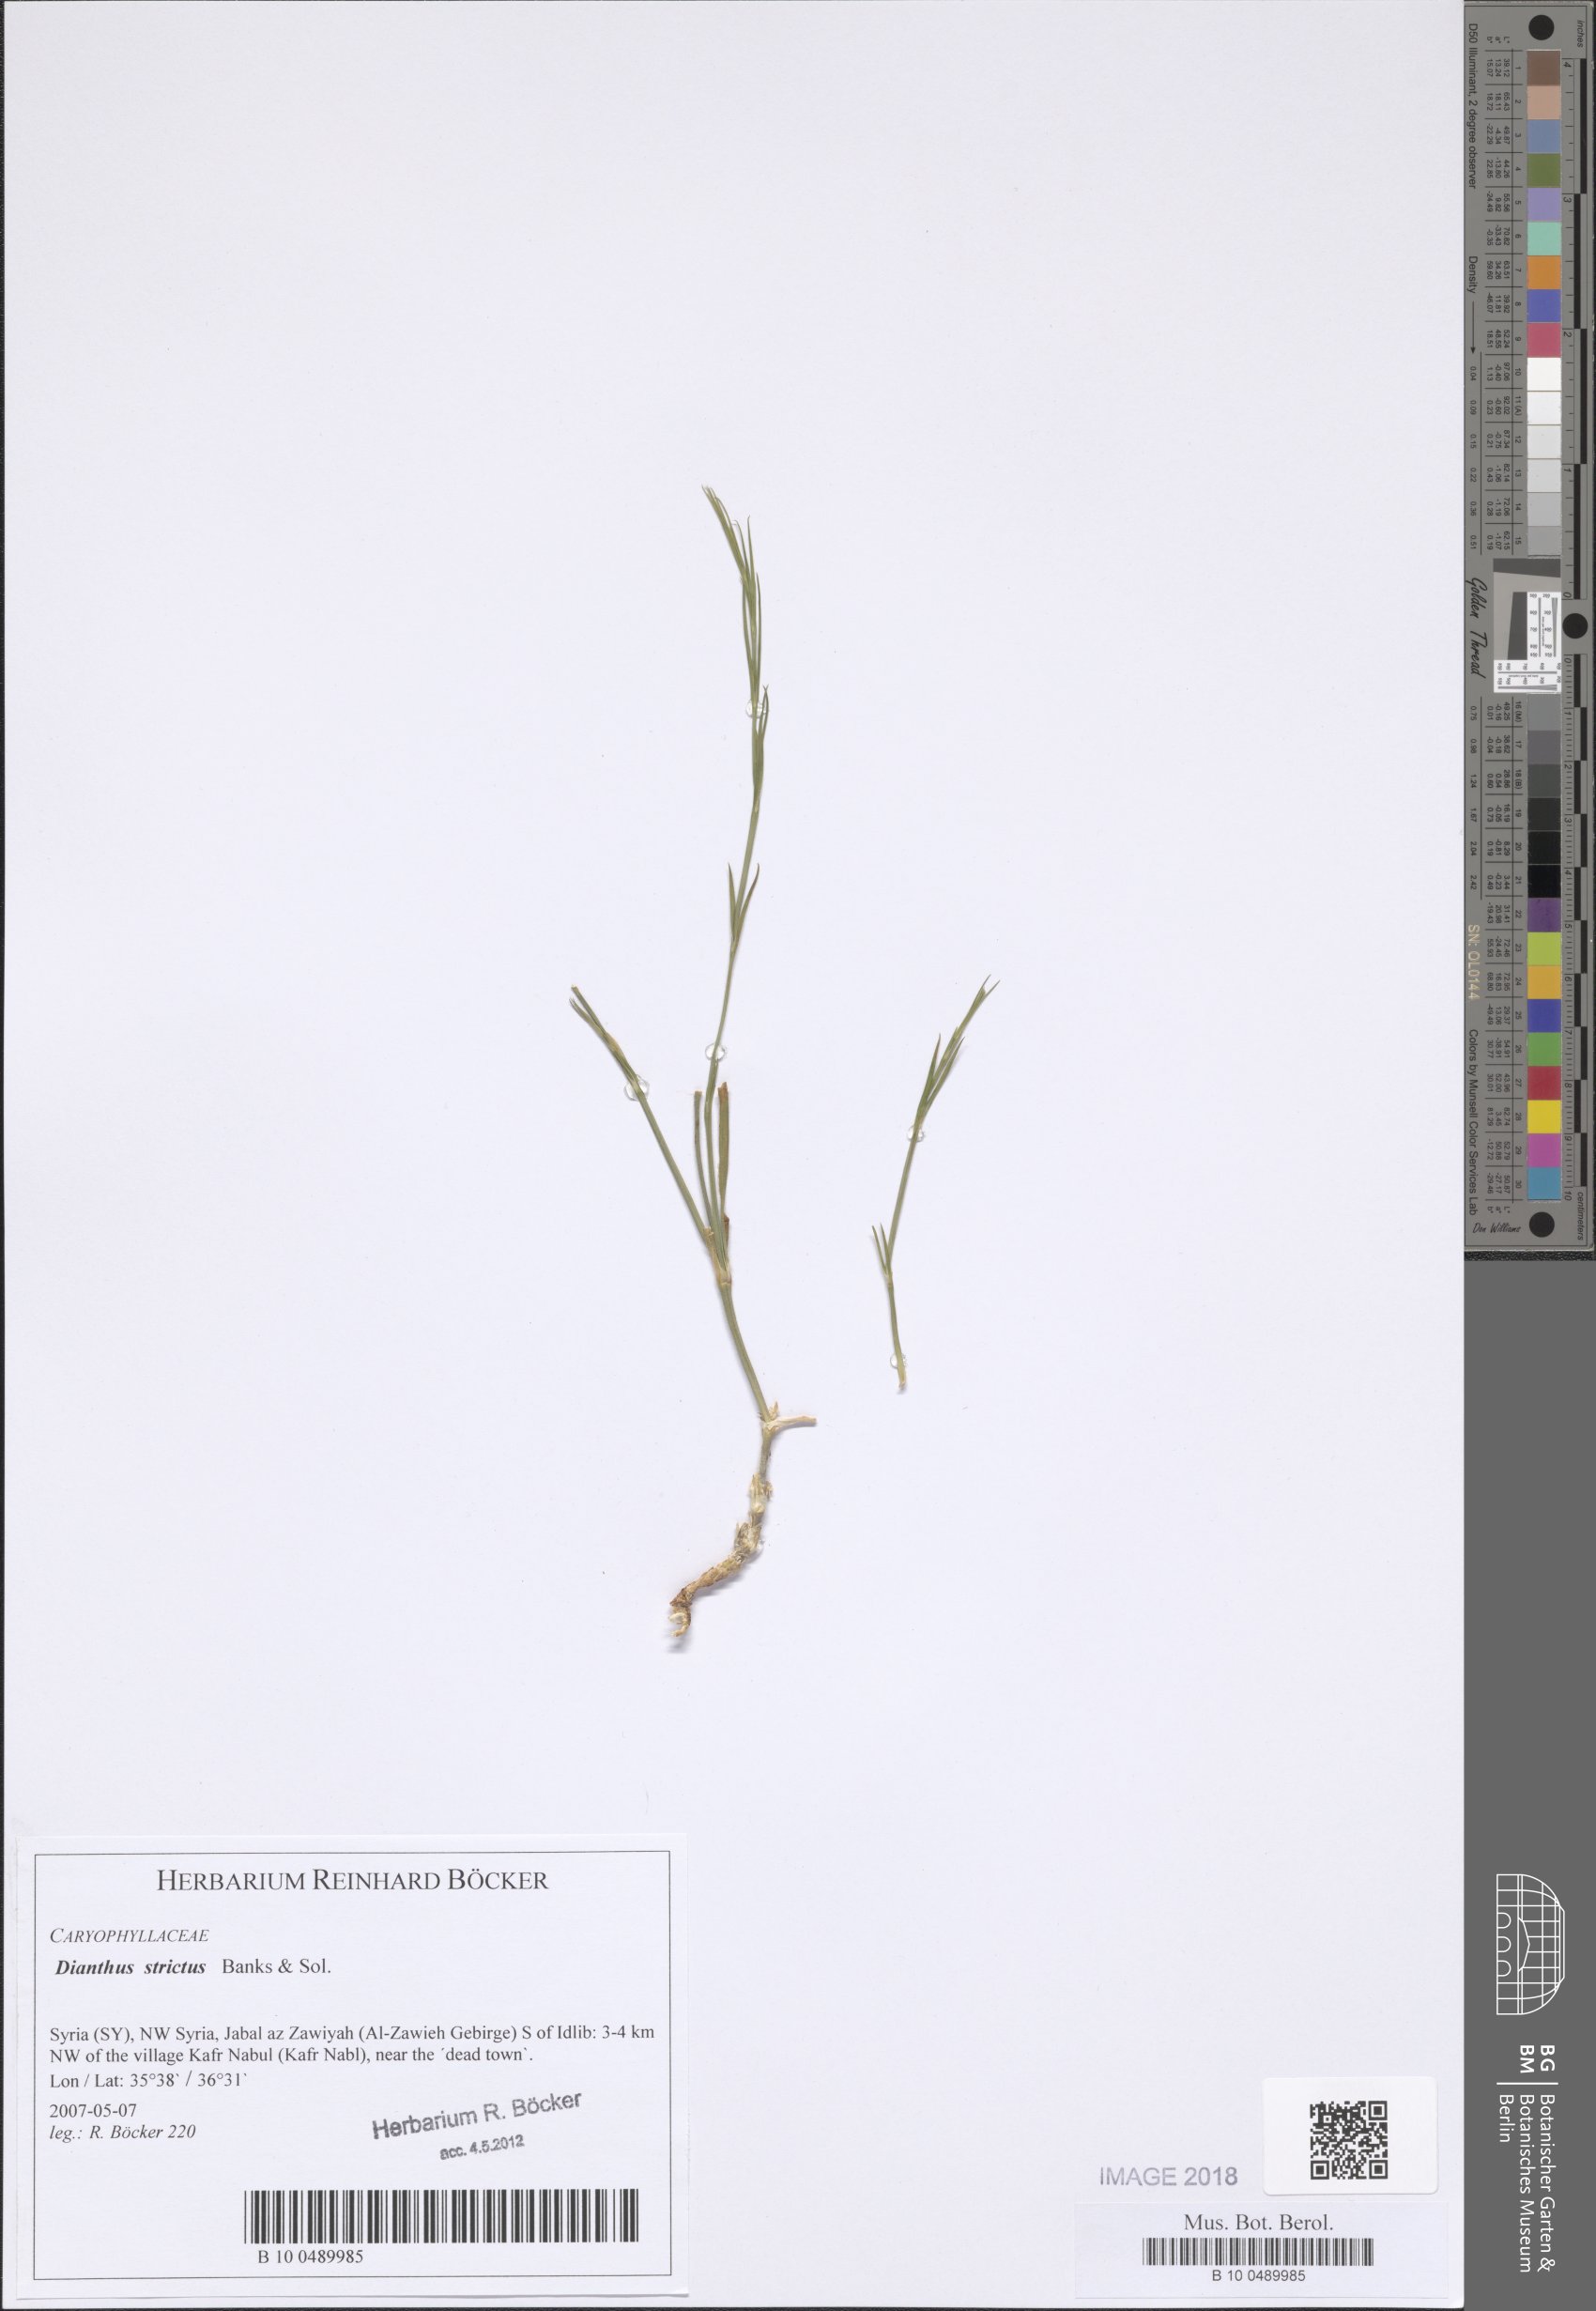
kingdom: Plantae
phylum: Tracheophyta
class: Magnoliopsida
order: Caryophyllales
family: Caryophyllaceae
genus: Dianthus
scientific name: Dianthus strictus
